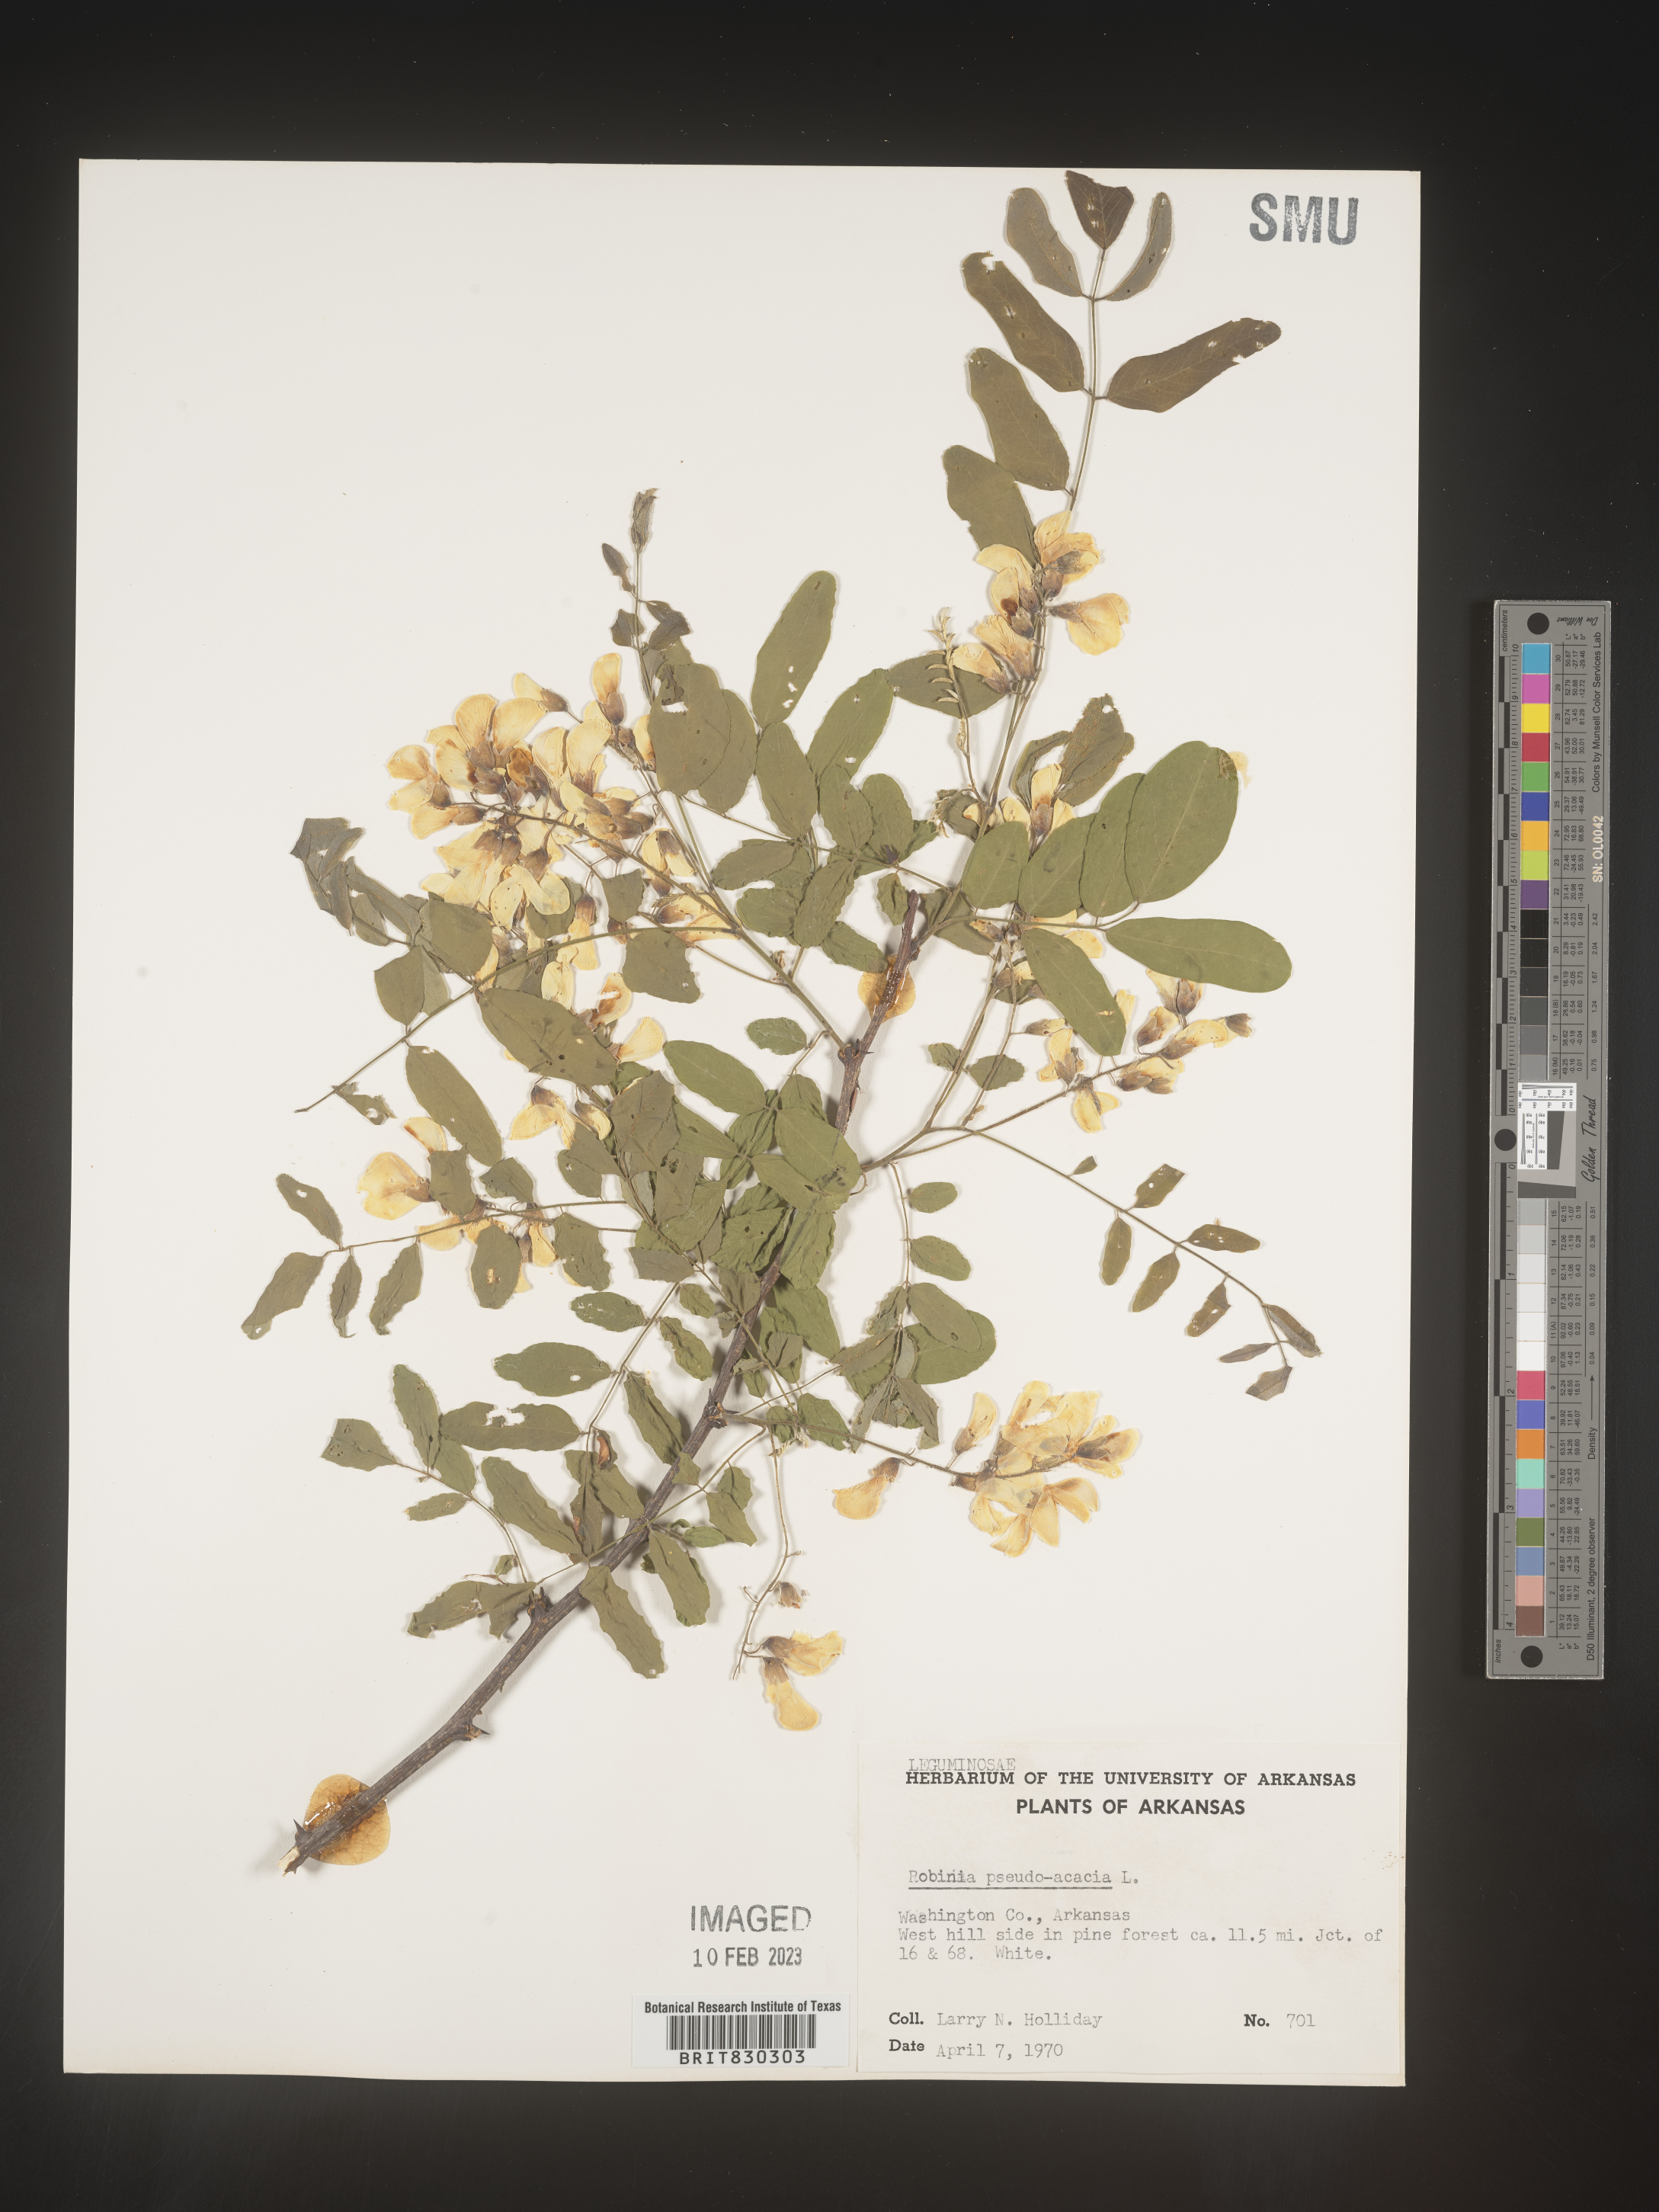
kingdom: Plantae
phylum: Tracheophyta
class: Magnoliopsida
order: Fabales
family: Fabaceae
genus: Robinia
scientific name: Robinia pseudoacacia
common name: Black locust
